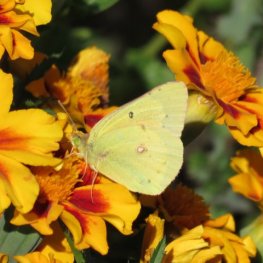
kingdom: Animalia
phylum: Arthropoda
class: Insecta
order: Lepidoptera
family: Pieridae
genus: Colias
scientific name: Colias eurytheme
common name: Orange Sulphur
